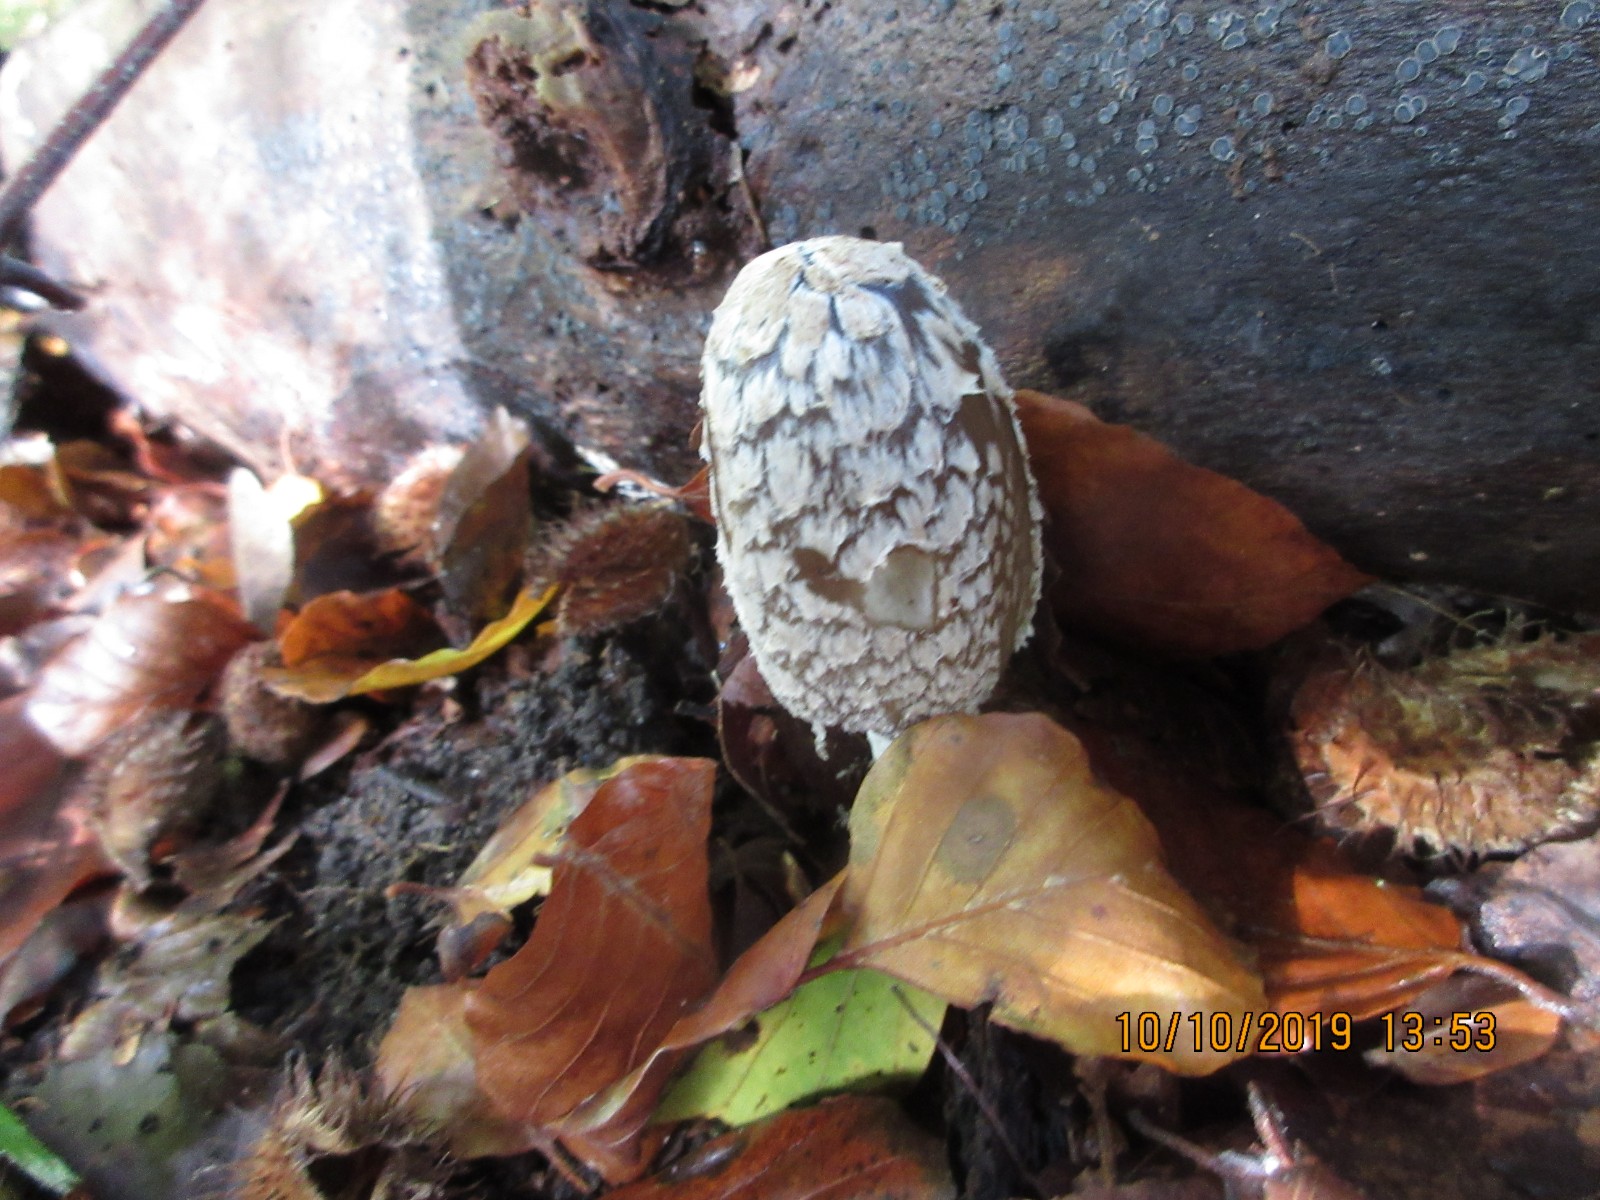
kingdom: Fungi
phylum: Basidiomycota
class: Agaricomycetes
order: Agaricales
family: Psathyrellaceae
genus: Coprinopsis
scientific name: Coprinopsis picacea
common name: skade-blækhat
